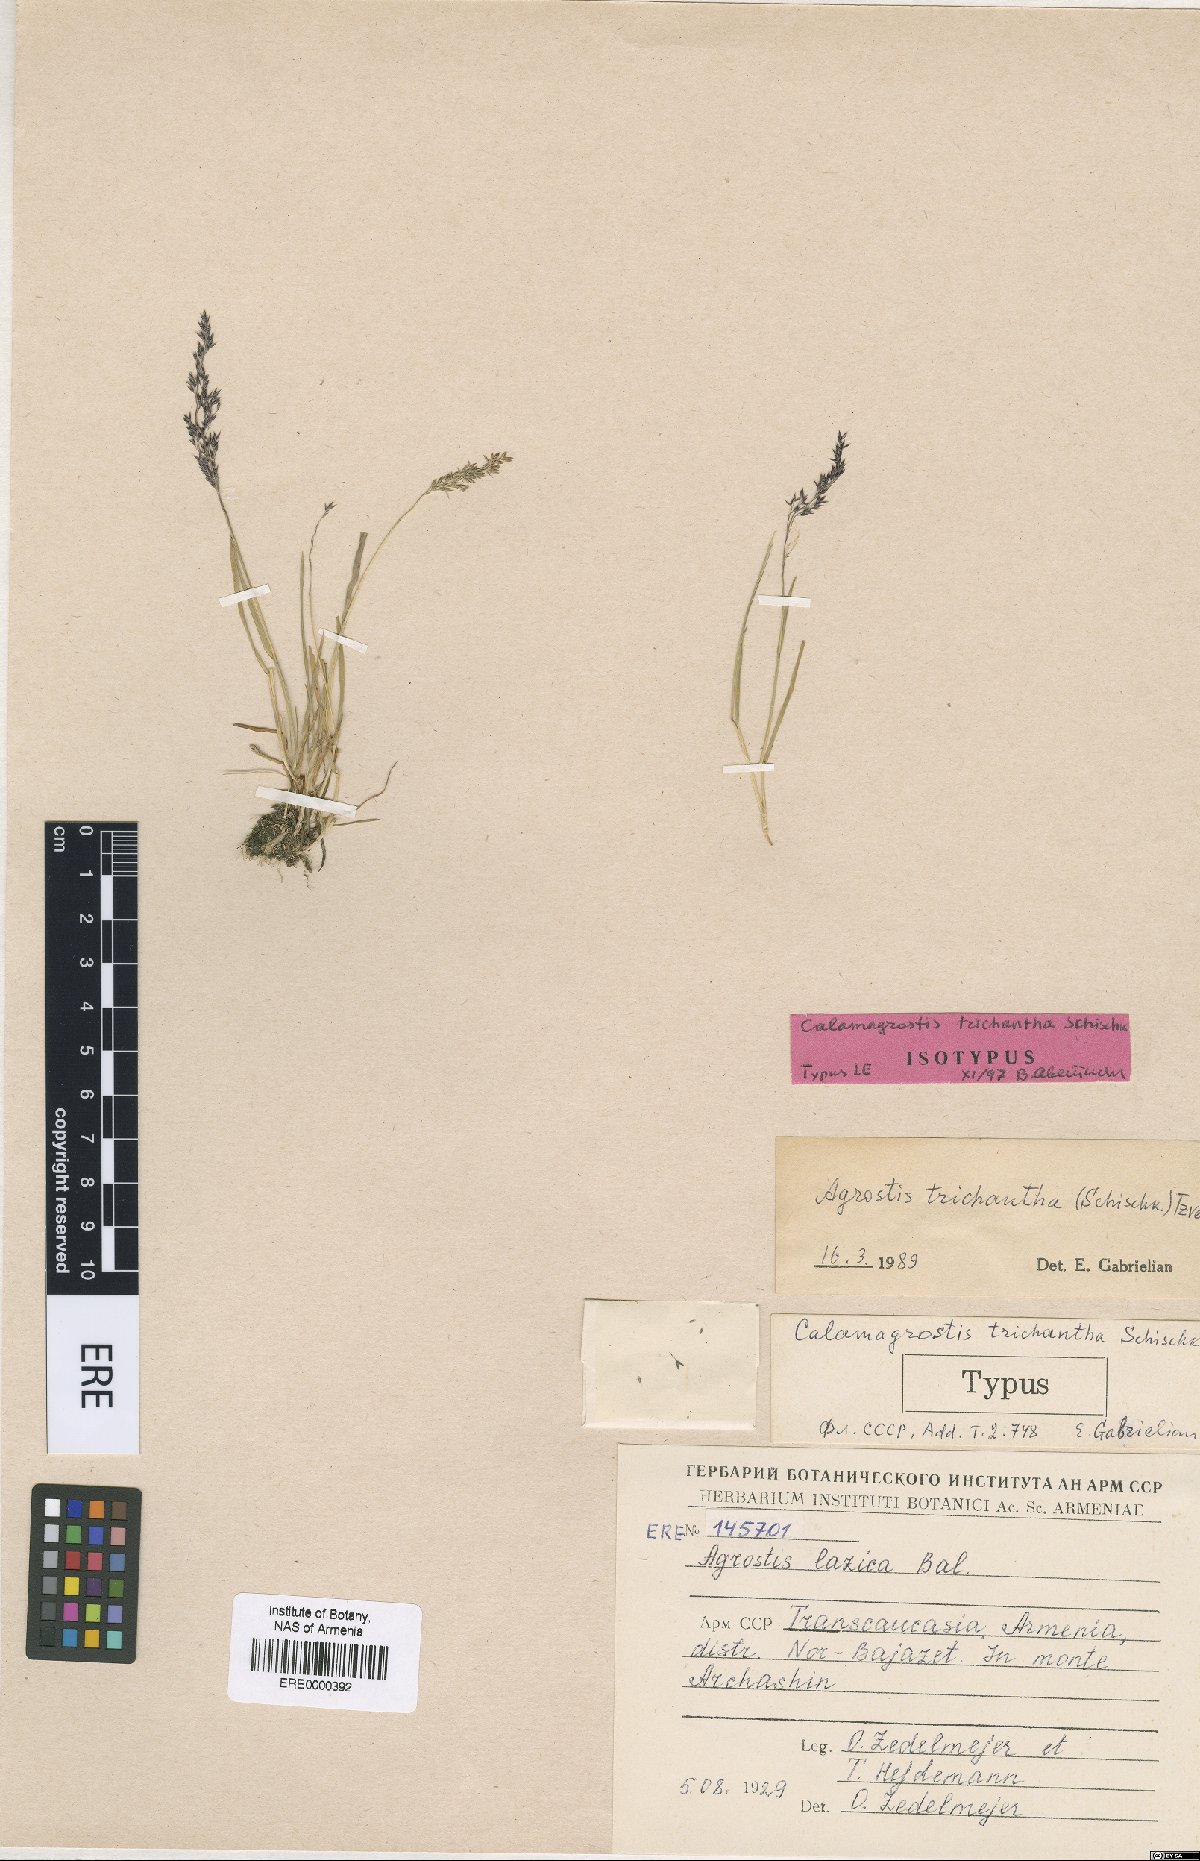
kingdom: Plantae
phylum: Tracheophyta
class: Liliopsida
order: Poales
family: Poaceae
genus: Agrostis
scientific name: Agrostis schischkinii
